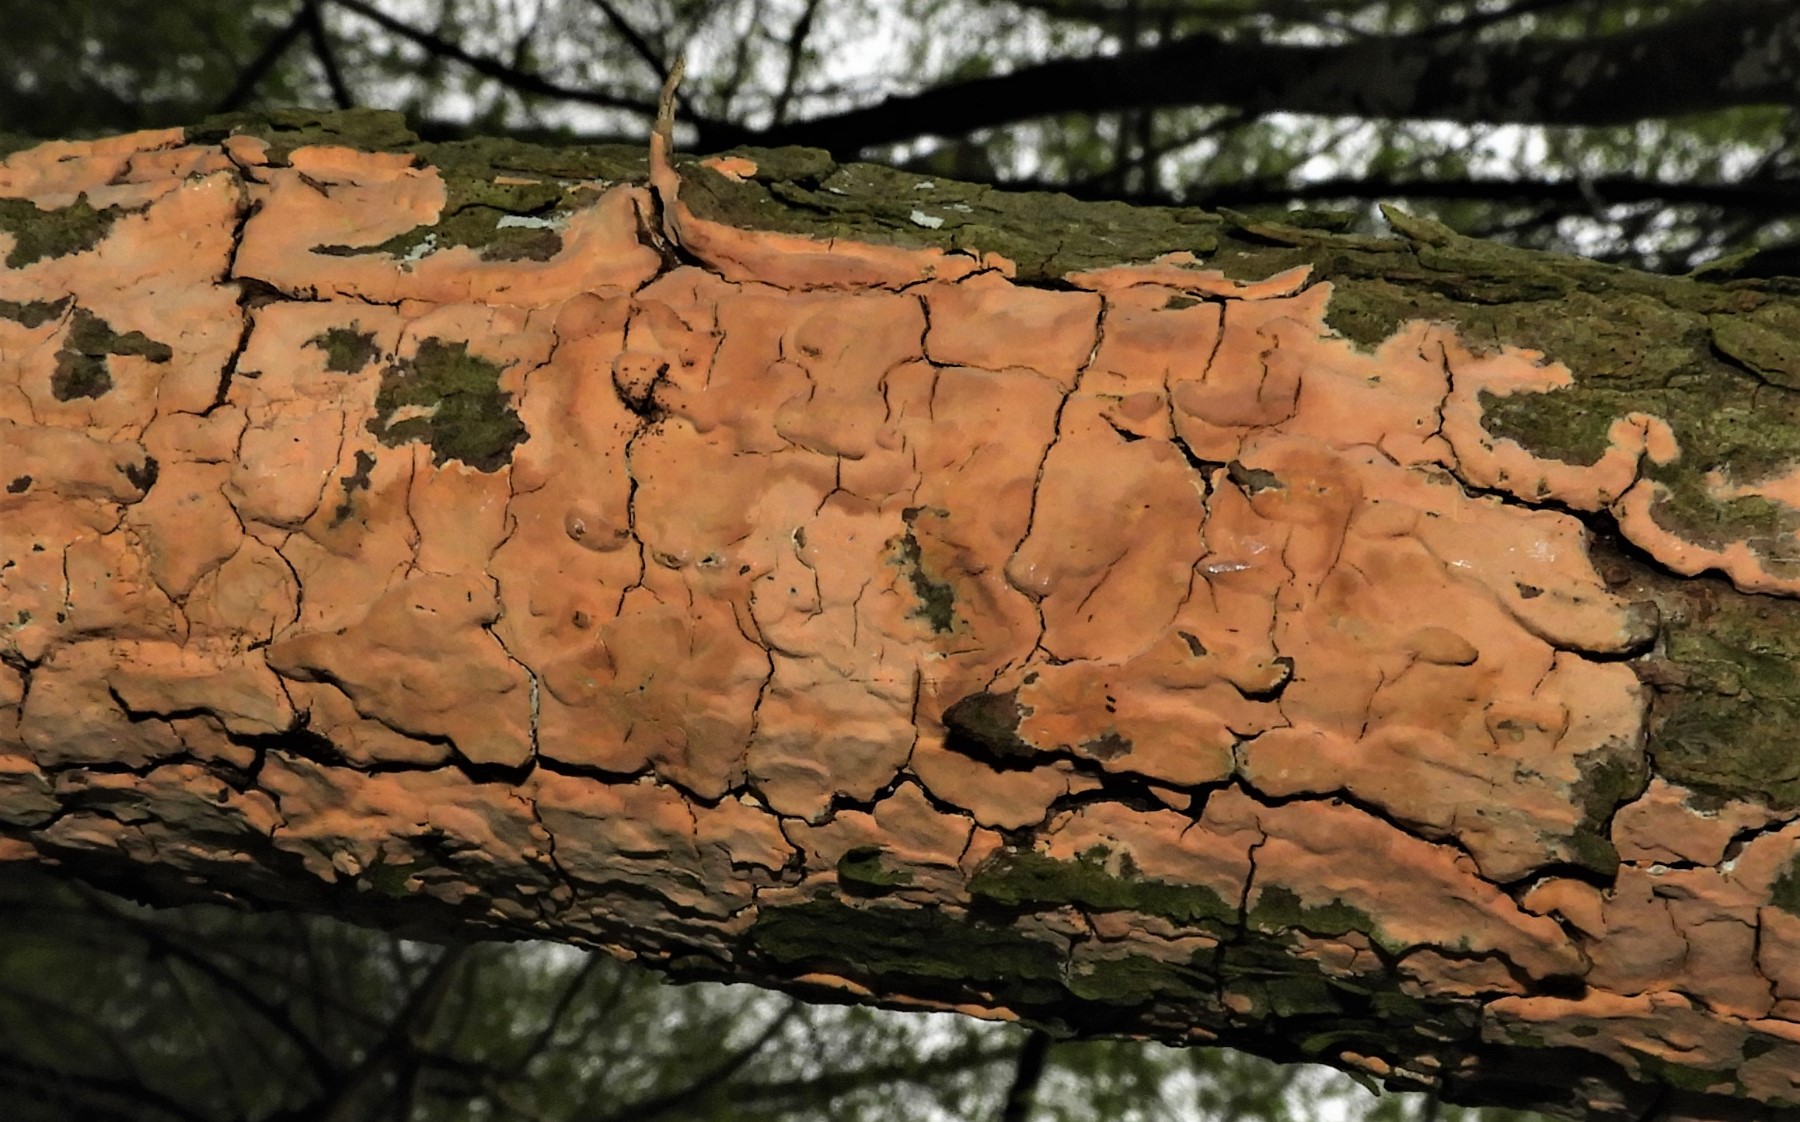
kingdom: Fungi
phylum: Basidiomycota
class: Agaricomycetes
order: Russulales
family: Peniophoraceae
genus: Peniophora
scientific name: Peniophora incarnata
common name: laksefarvet voksskind
